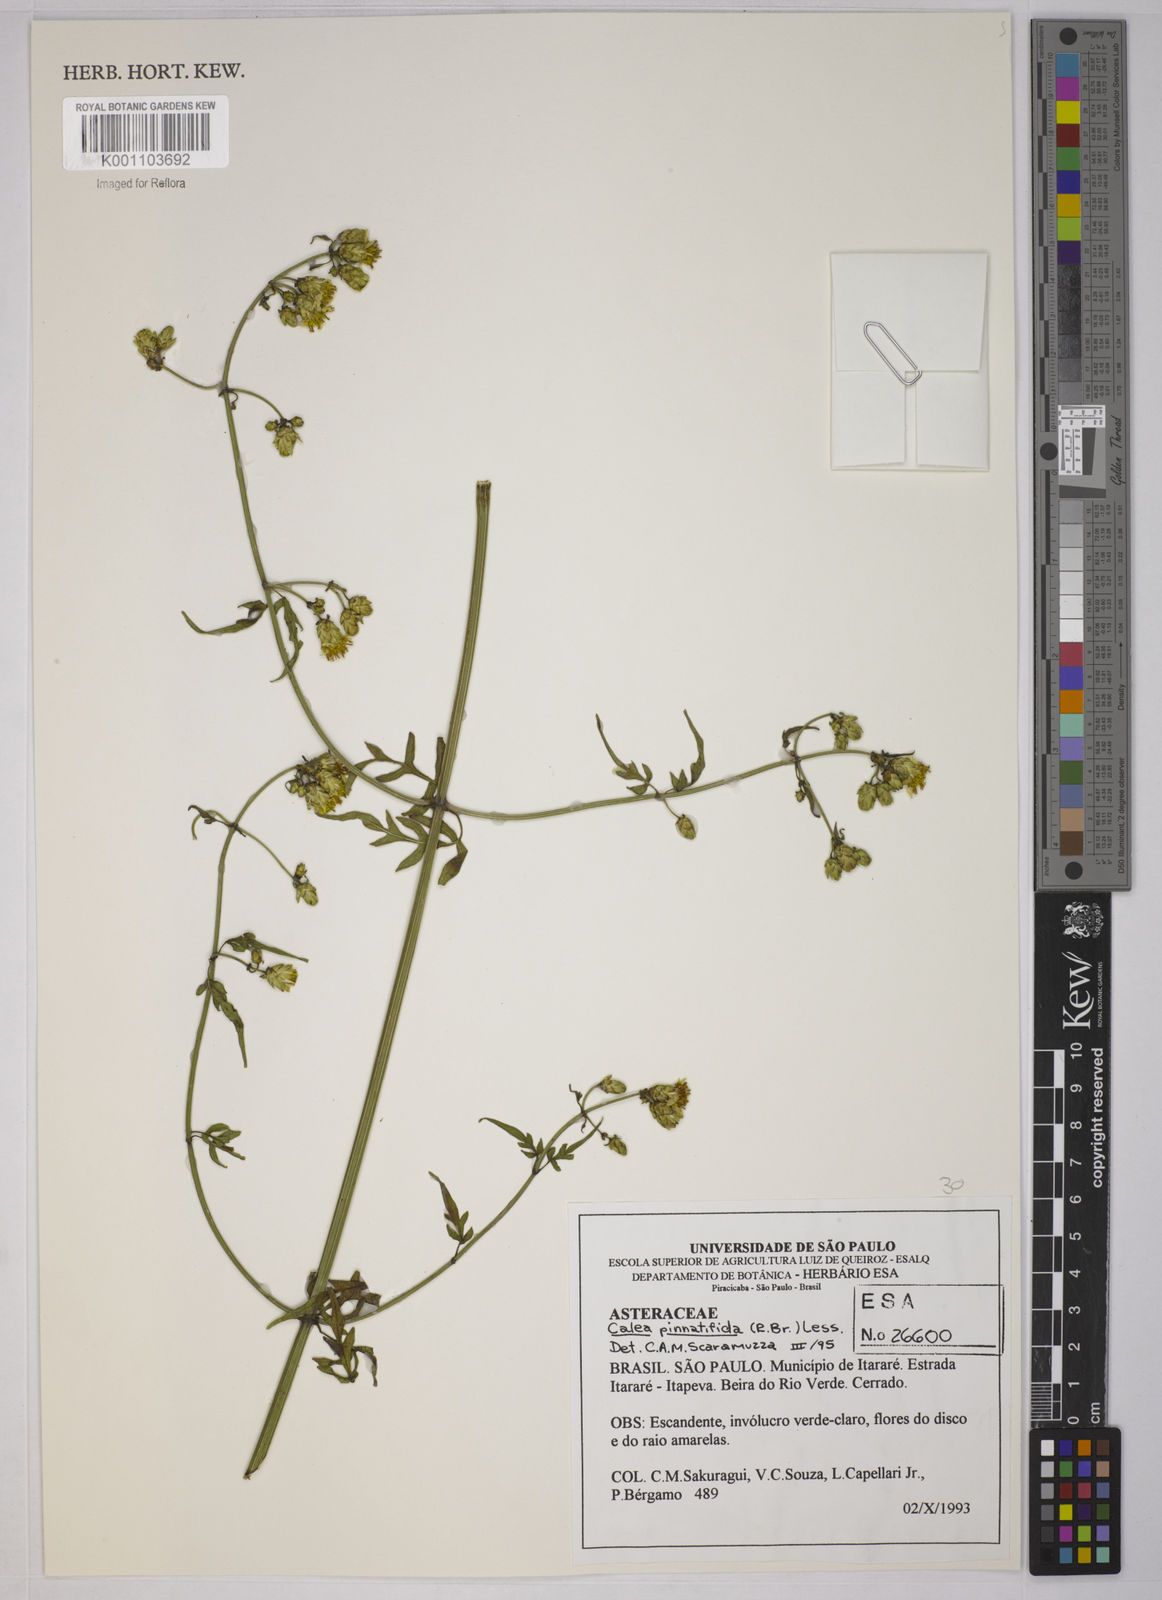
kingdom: Plantae
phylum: Tracheophyta
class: Magnoliopsida
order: Asterales
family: Asteraceae
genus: Calea
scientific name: Calea
